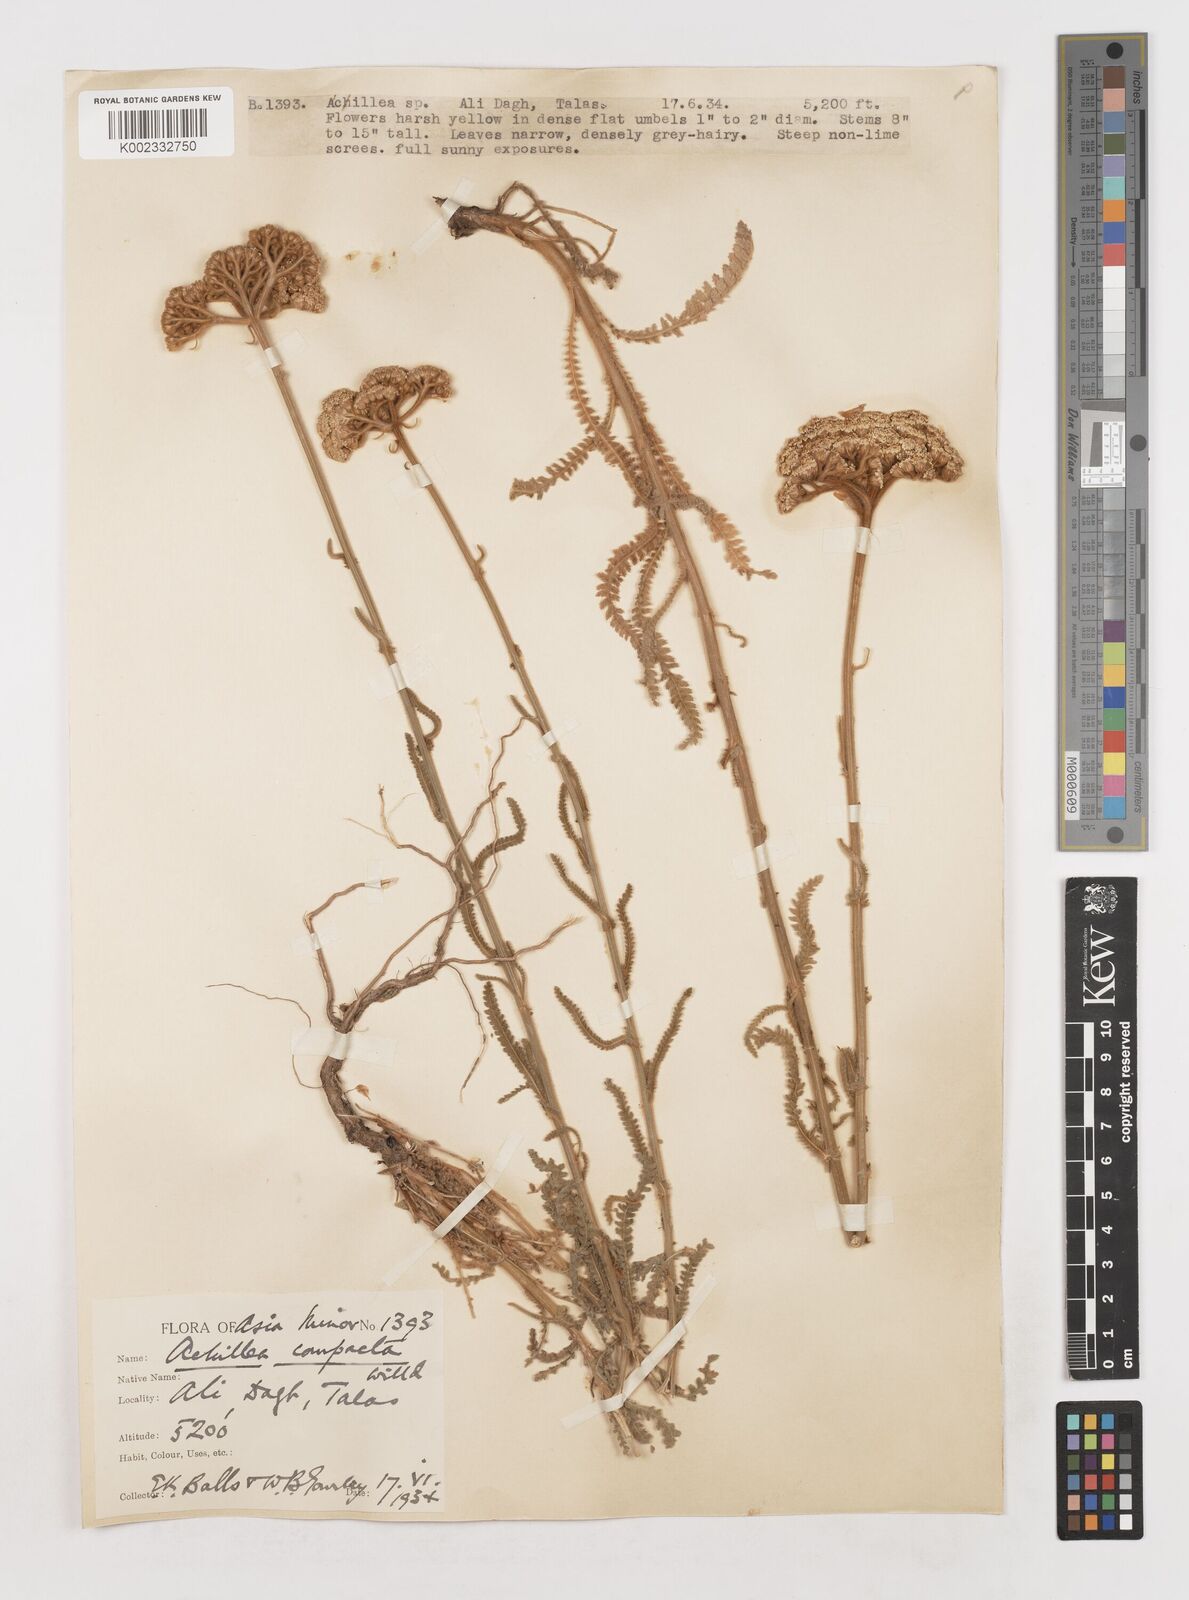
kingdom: Plantae
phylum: Tracheophyta
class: Magnoliopsida
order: Asterales
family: Asteraceae
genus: Achillea
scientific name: Achillea coarctata
